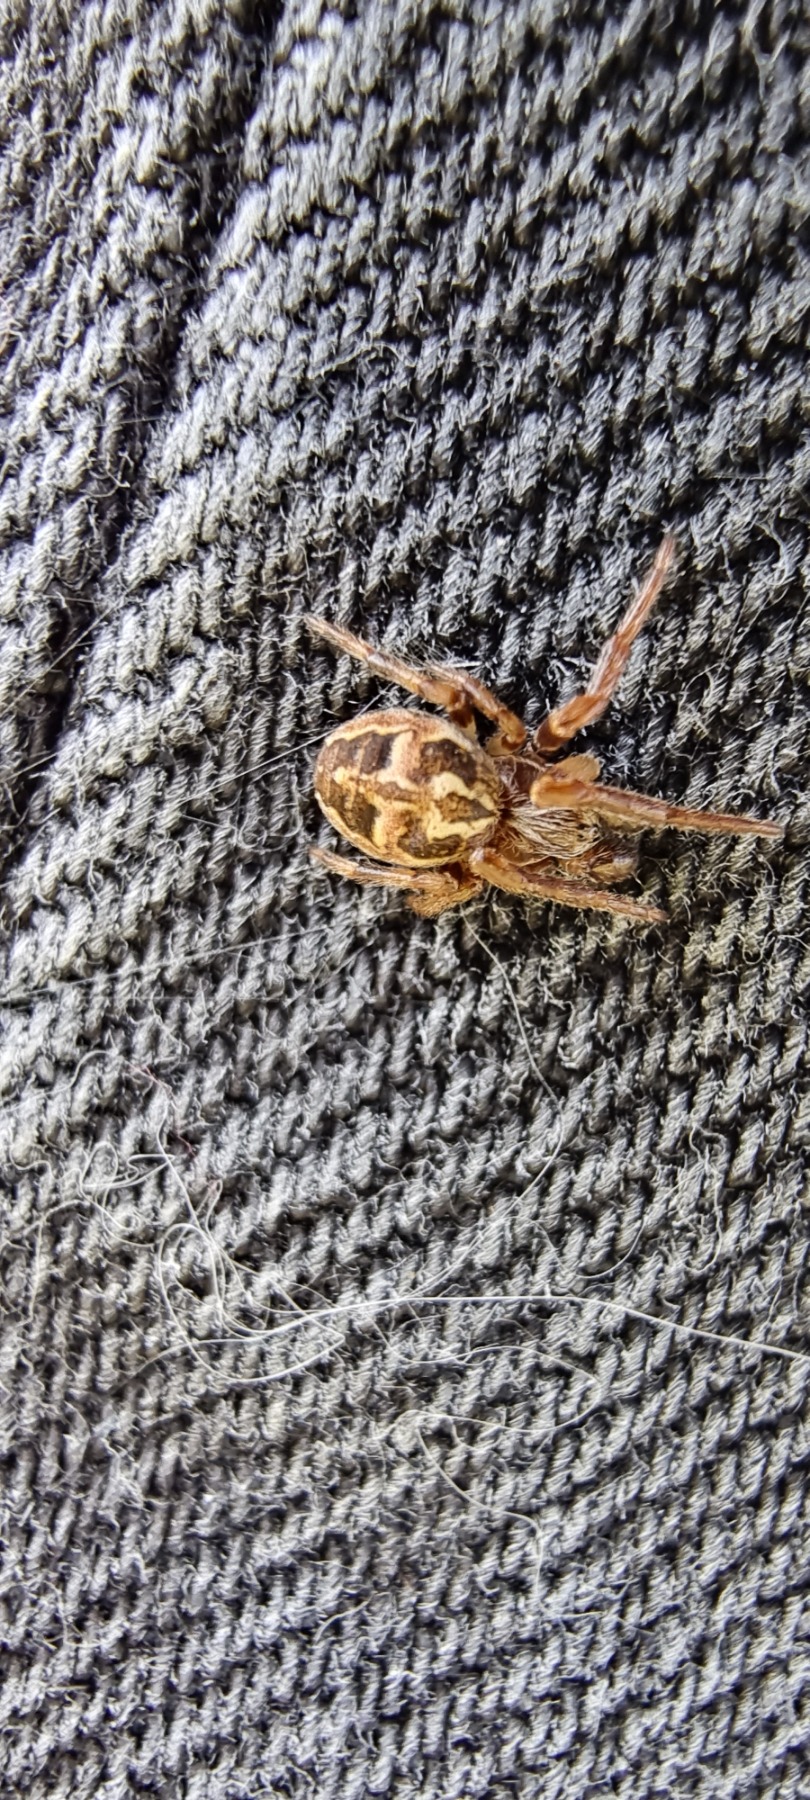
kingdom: Animalia
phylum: Arthropoda
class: Arachnida
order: Araneae
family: Araneidae
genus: Larinioides
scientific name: Larinioides cornutus
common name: Sivhjulspinder
